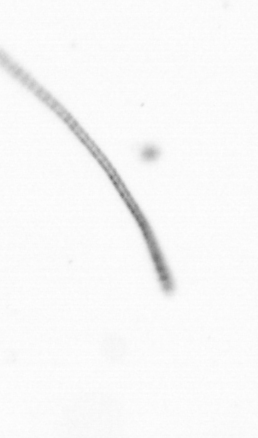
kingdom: Chromista
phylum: Ochrophyta
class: Bacillariophyceae
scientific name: Bacillariophyceae
